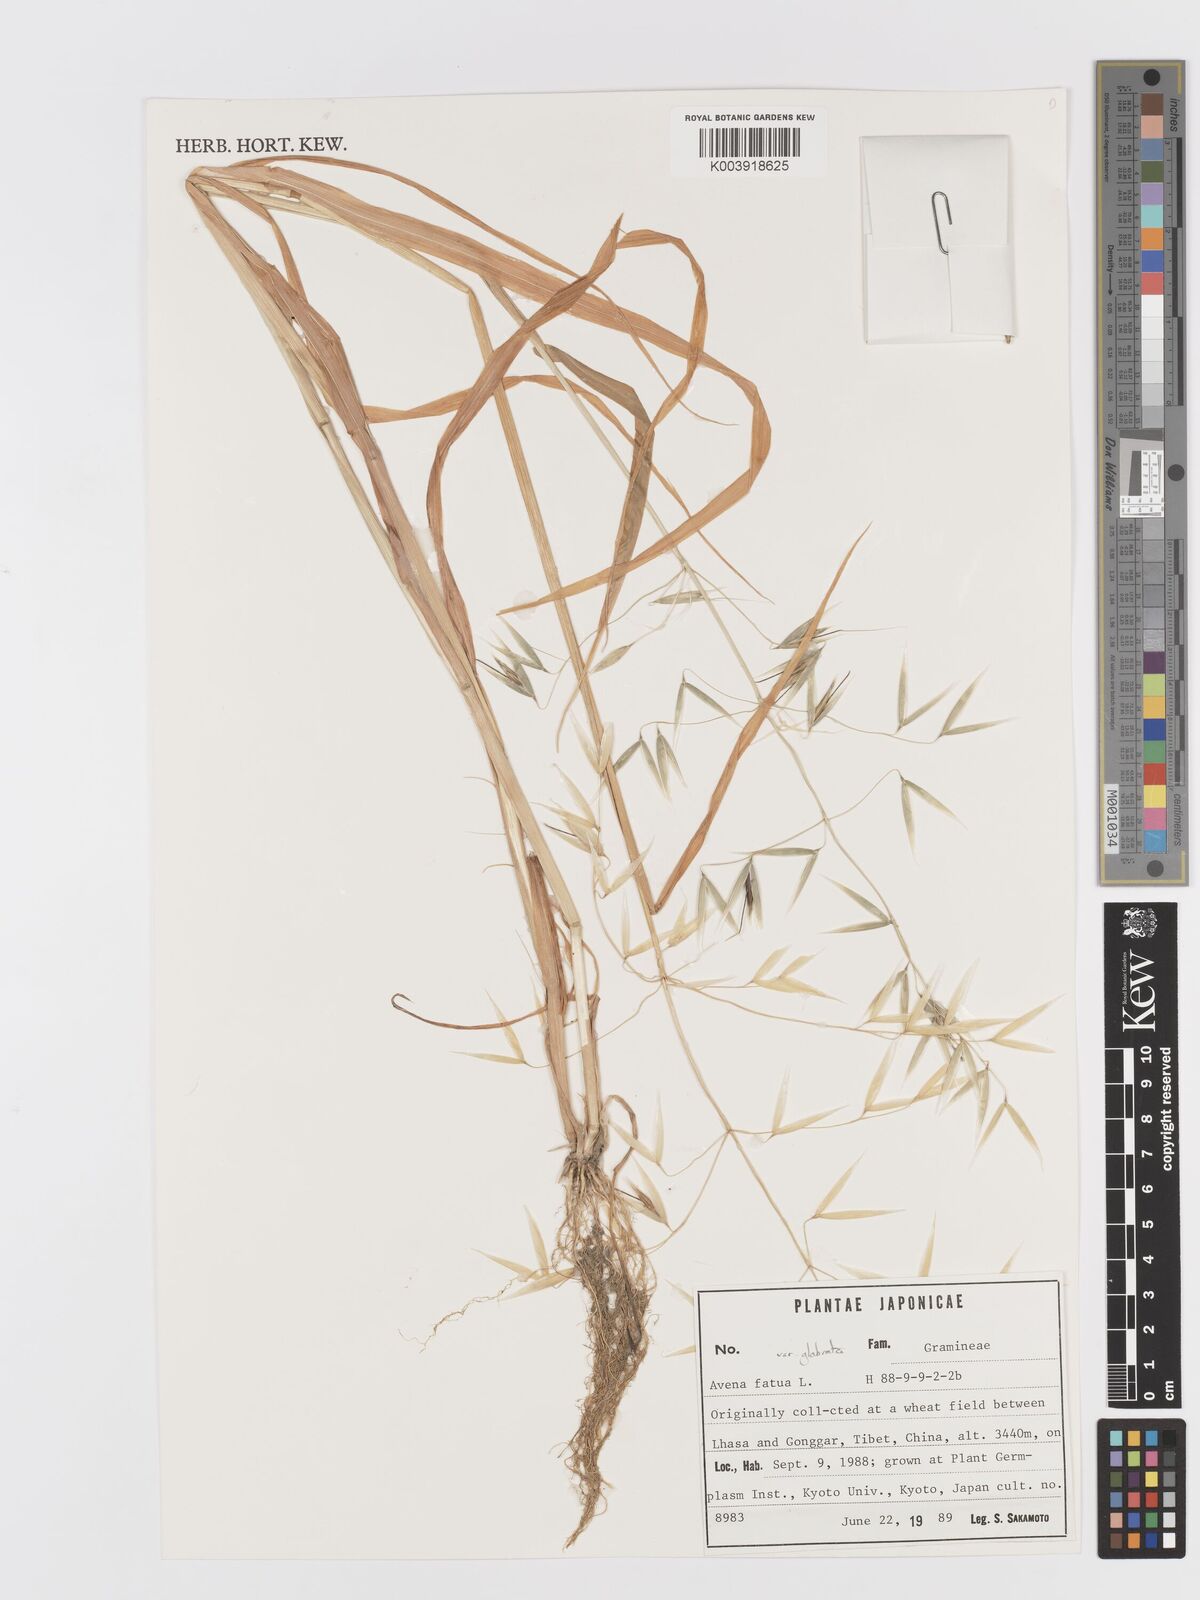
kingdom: Plantae
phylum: Tracheophyta
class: Liliopsida
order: Poales
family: Poaceae
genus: Avena
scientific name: Avena fatua
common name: Wild oat
